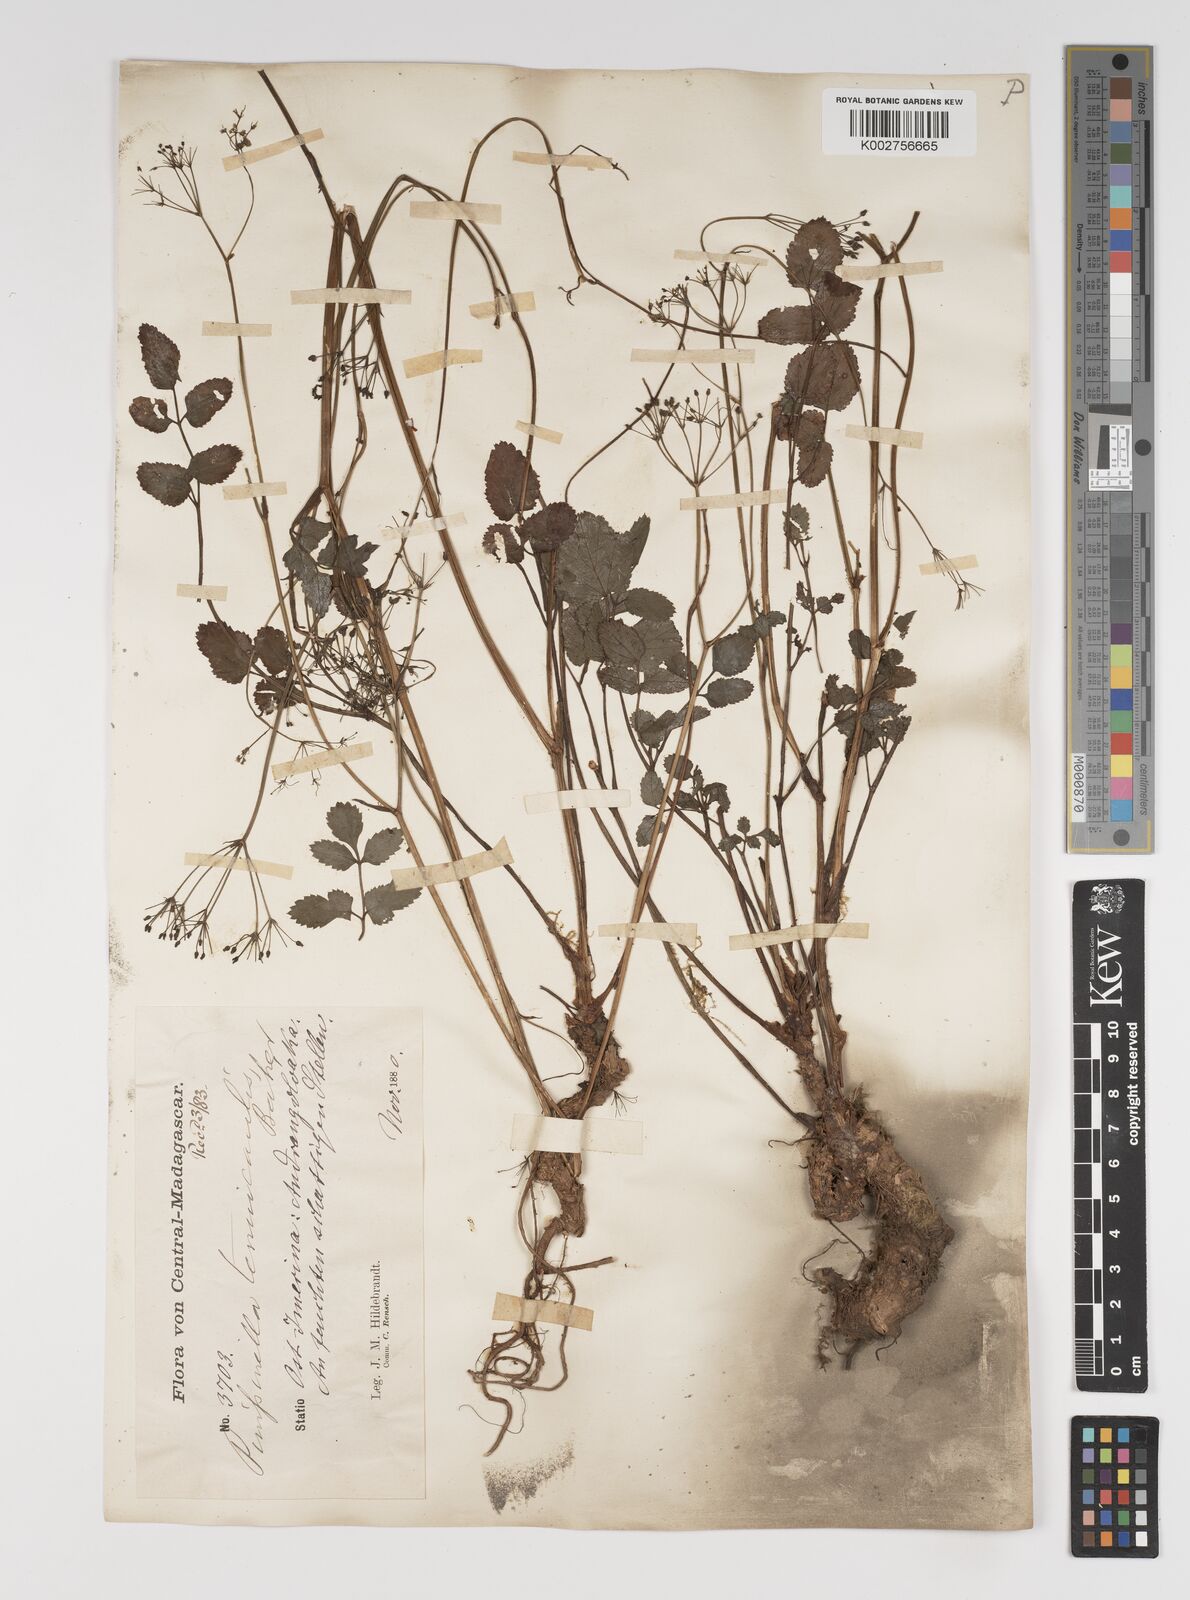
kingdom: Plantae
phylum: Tracheophyta
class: Magnoliopsida
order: Apiales
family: Apiaceae
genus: Pimpinella
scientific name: Pimpinella tenuicaulis
